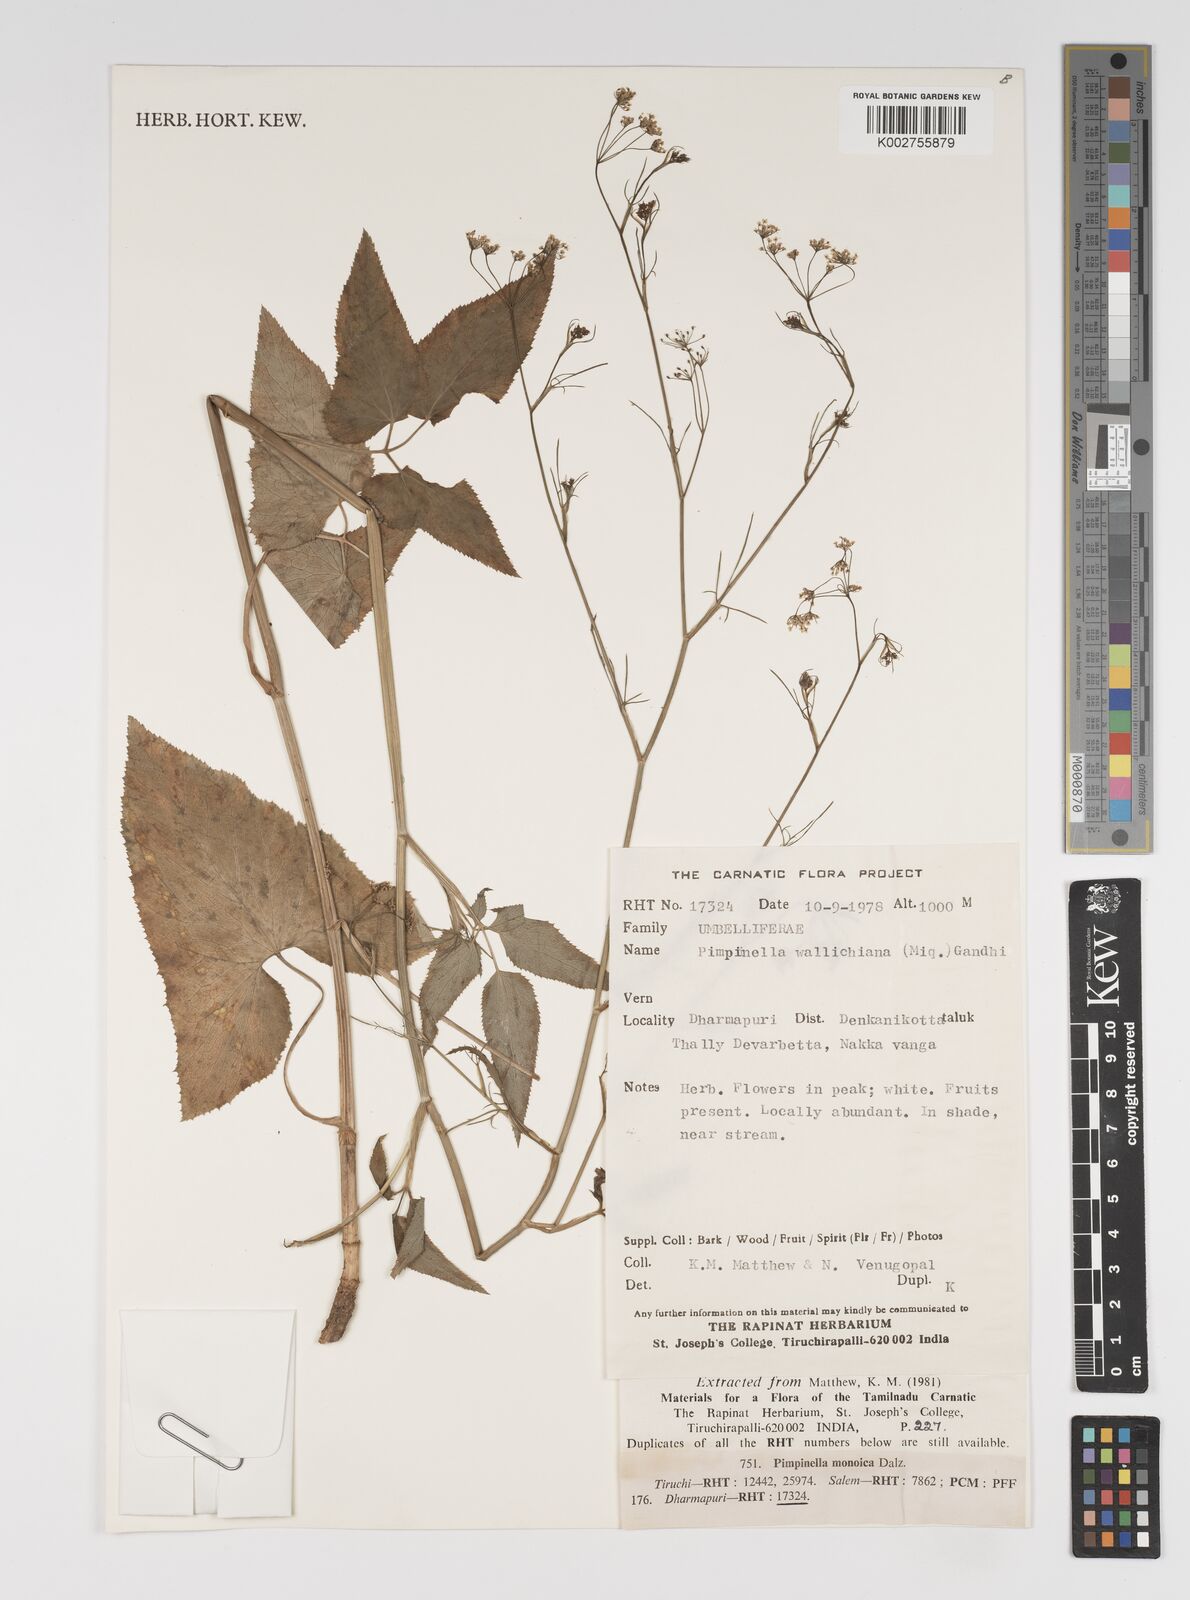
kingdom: Plantae
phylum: Tracheophyta
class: Magnoliopsida
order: Apiales
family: Apiaceae
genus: Pimpinella
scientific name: Pimpinella wallichii
